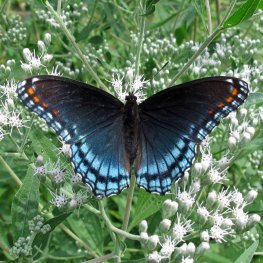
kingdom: Animalia
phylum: Arthropoda
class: Insecta
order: Lepidoptera
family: Nymphalidae
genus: Limenitis
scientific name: Limenitis astyanax
